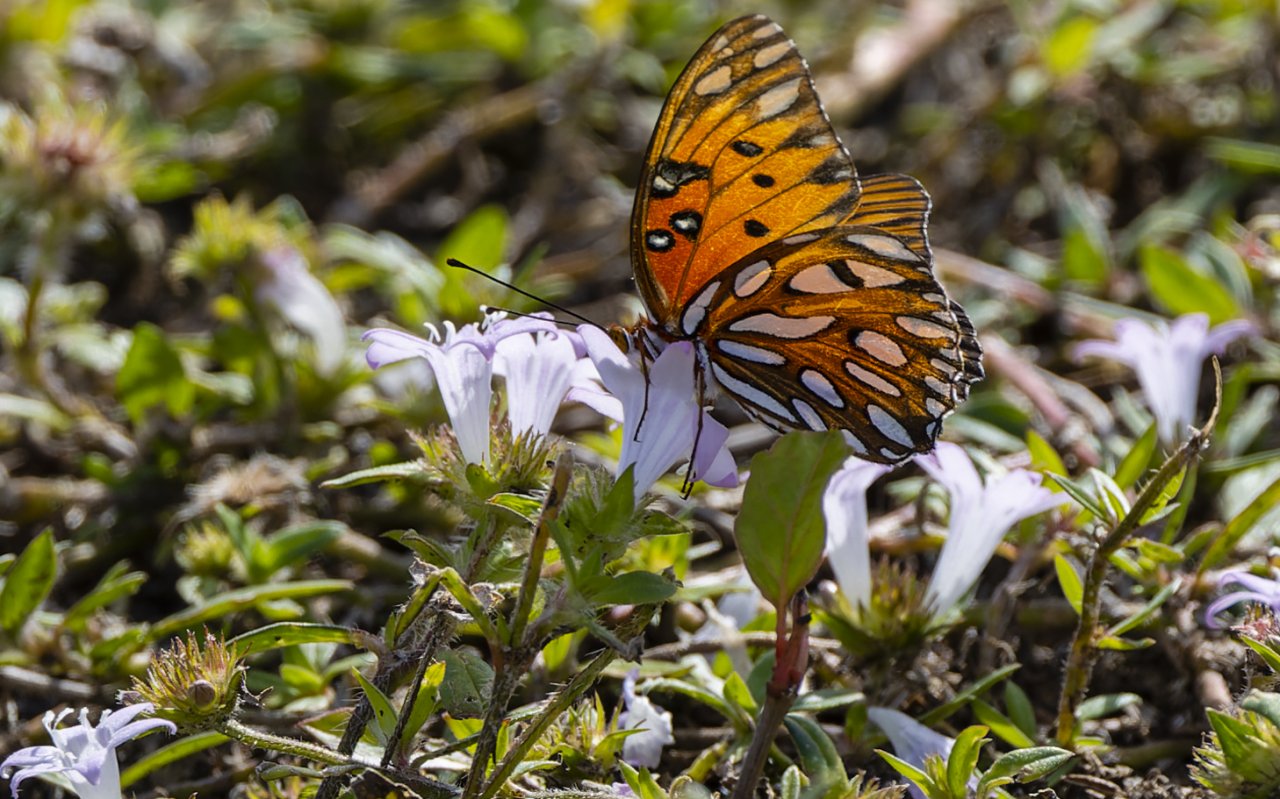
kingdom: Animalia
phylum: Arthropoda
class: Insecta
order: Lepidoptera
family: Nymphalidae
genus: Dione
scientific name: Dione vanillae
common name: Gulf Fritillary
